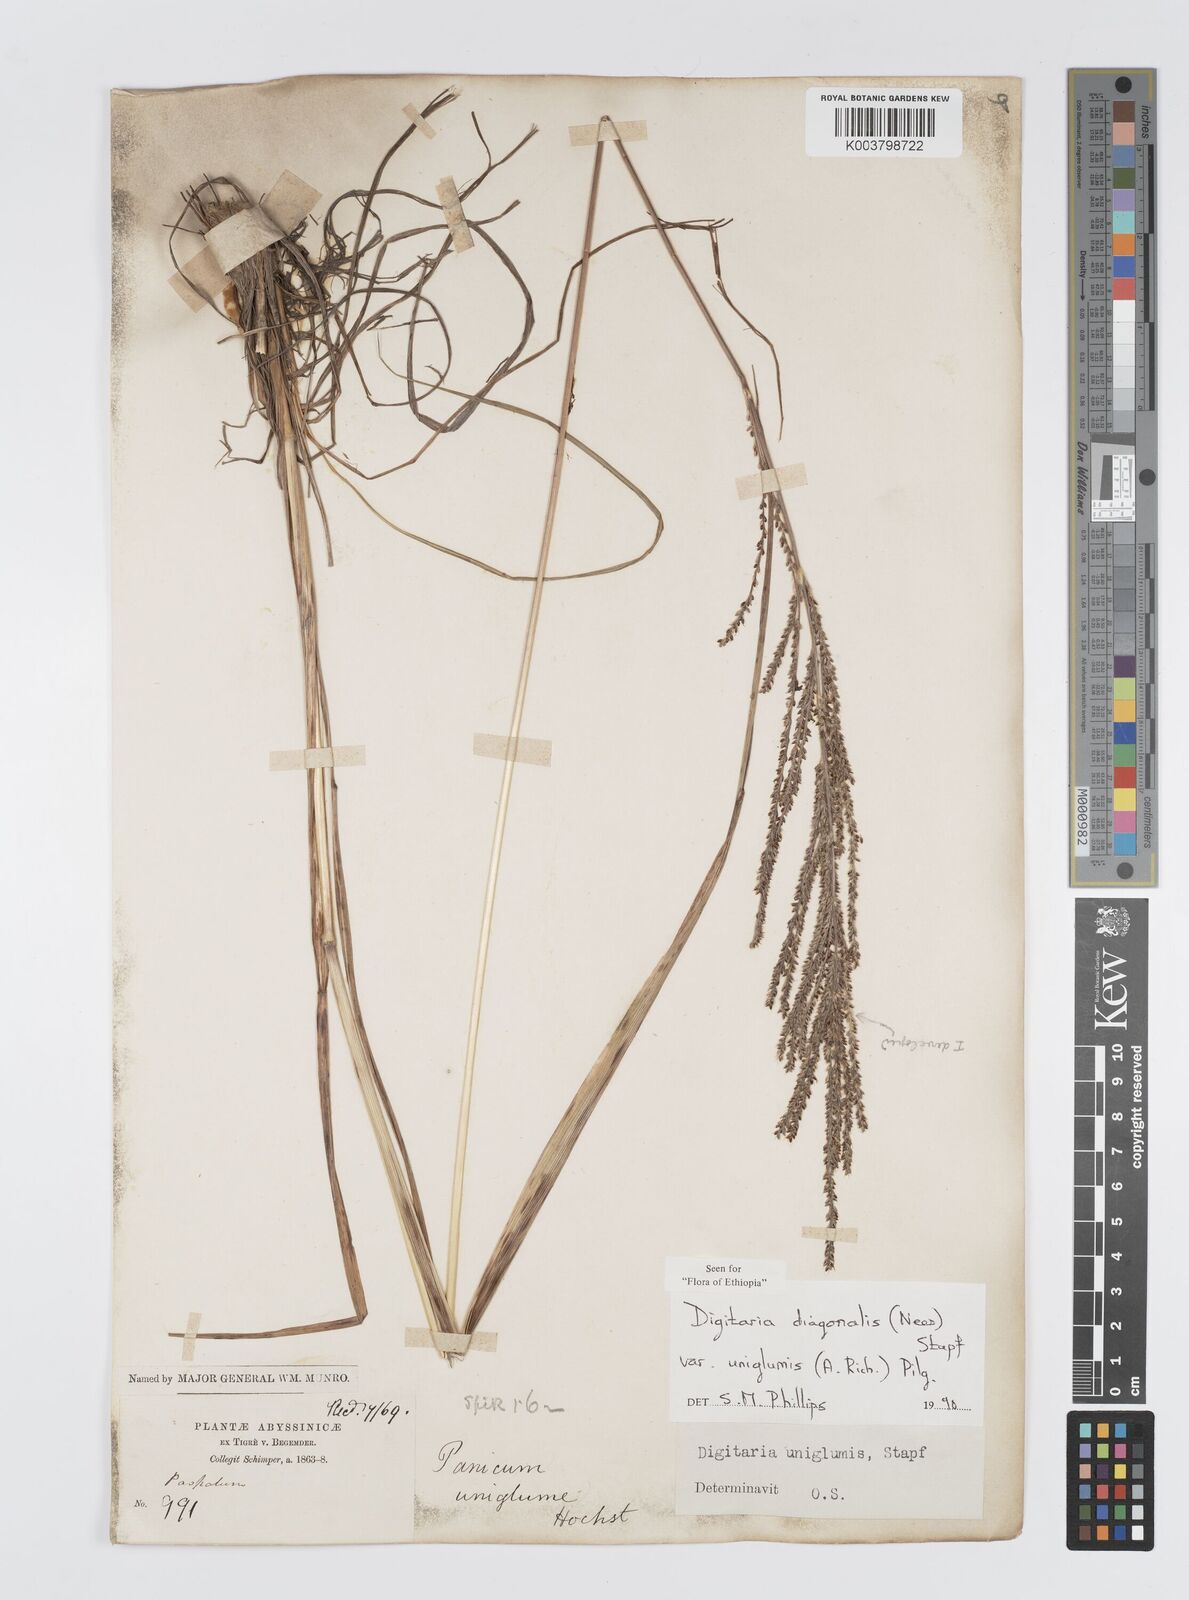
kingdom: Plantae
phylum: Tracheophyta
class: Liliopsida
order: Poales
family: Poaceae
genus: Digitaria
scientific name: Digitaria diagonalis
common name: Brown-seed finger grass
